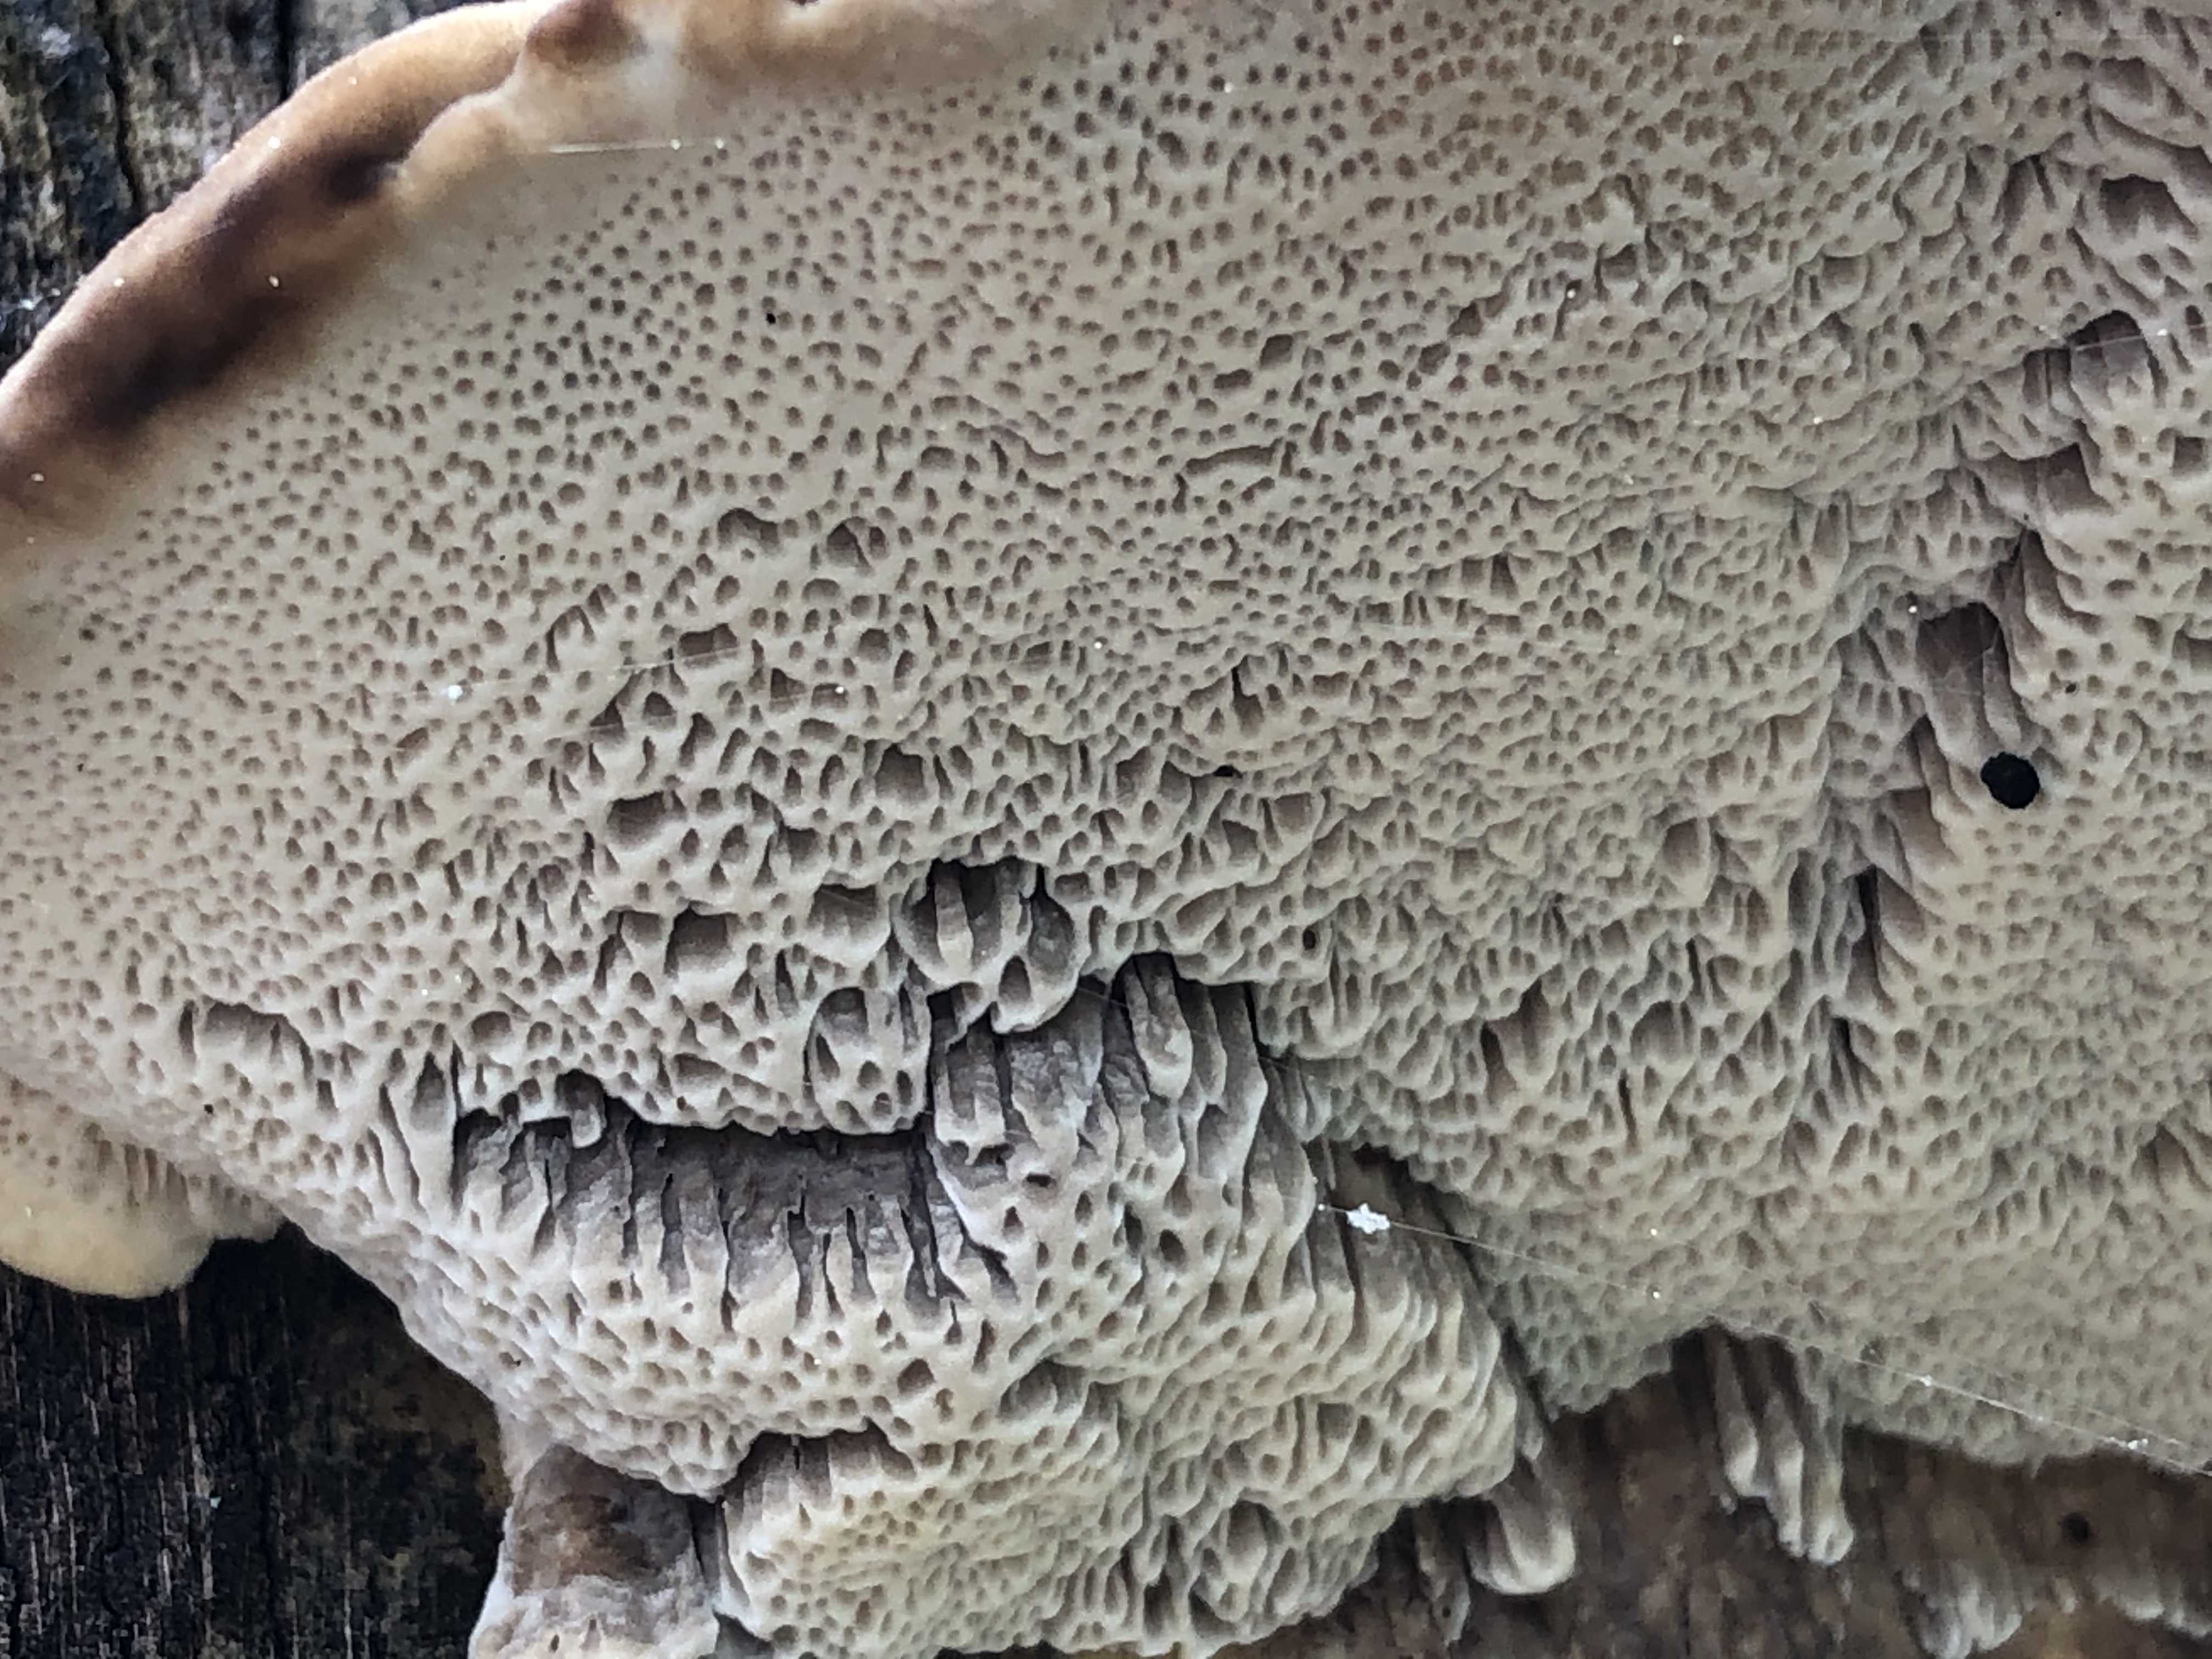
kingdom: Fungi
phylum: Basidiomycota
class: Agaricomycetes
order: Polyporales
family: Polyporaceae
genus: Trametes
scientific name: Trametes hirsuta
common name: håret læderporesvamp
